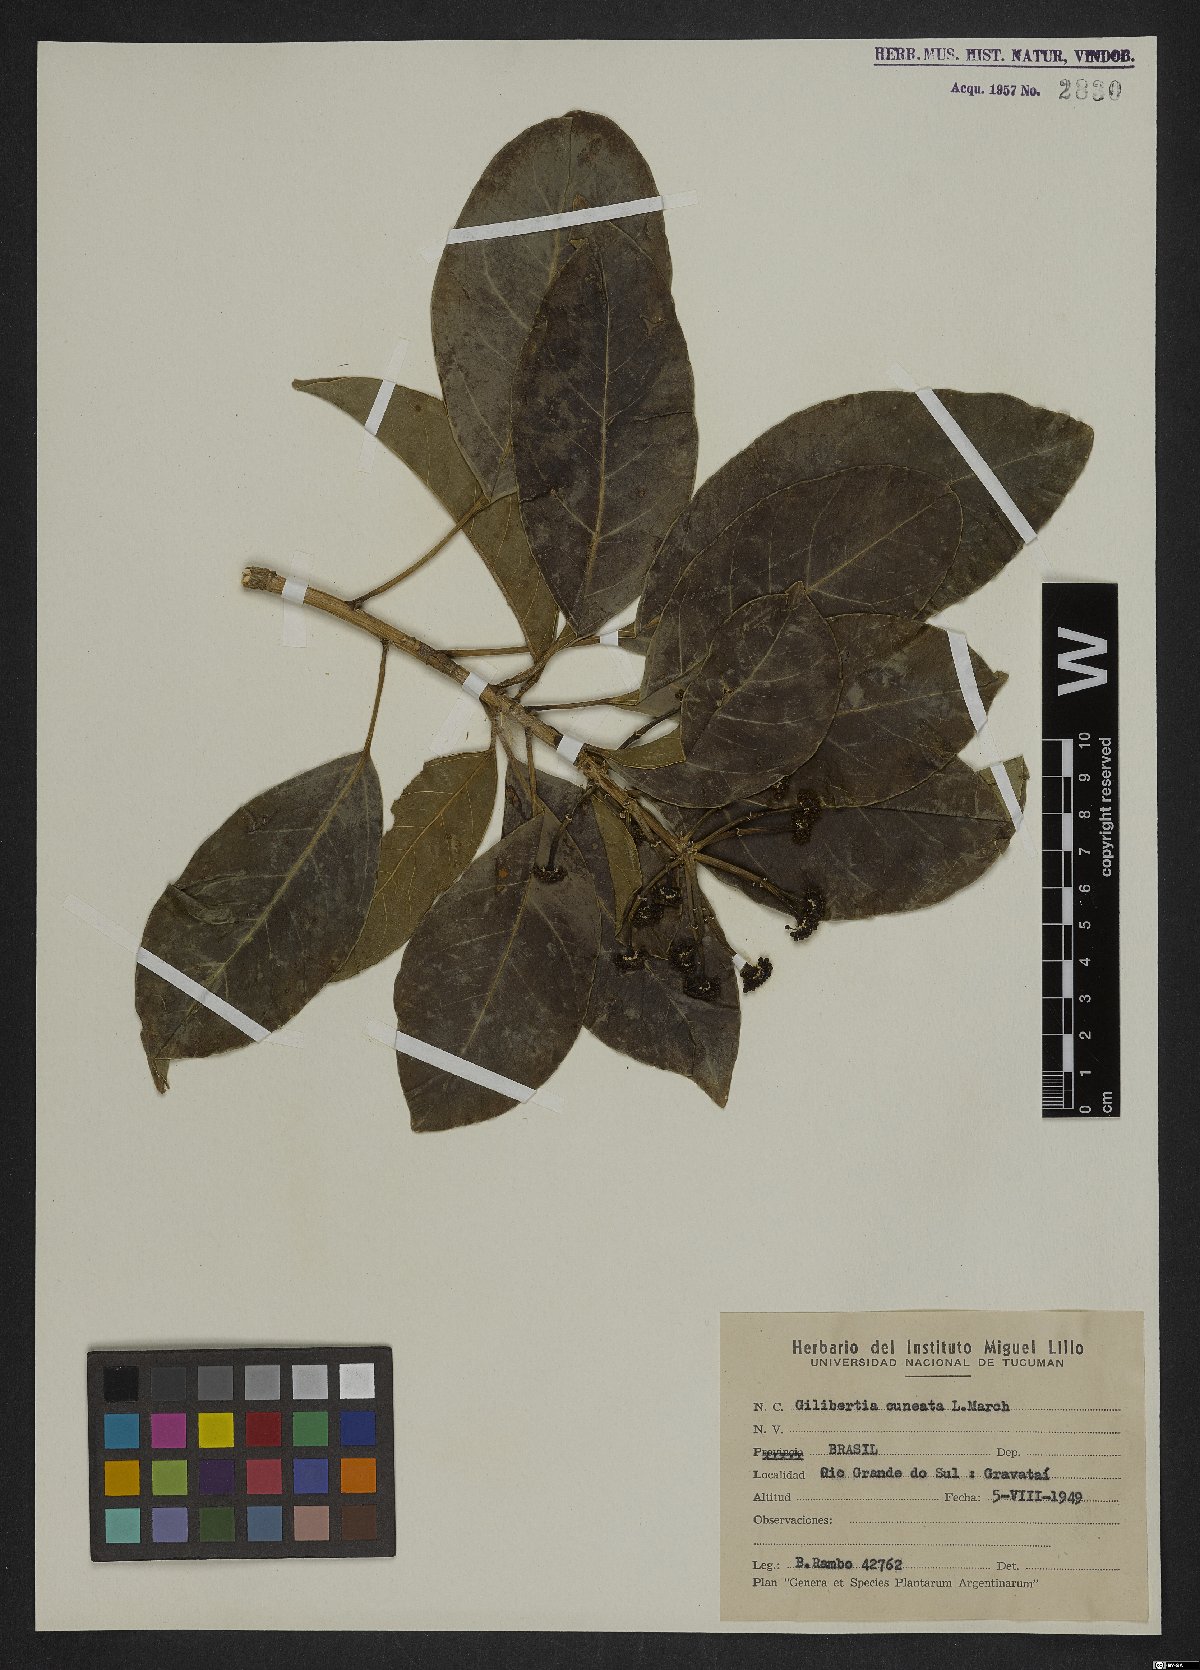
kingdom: Plantae
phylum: Tracheophyta
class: Magnoliopsida
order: Apiales
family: Araliaceae
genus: Dendropanax
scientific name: Dendropanax cuneatus
